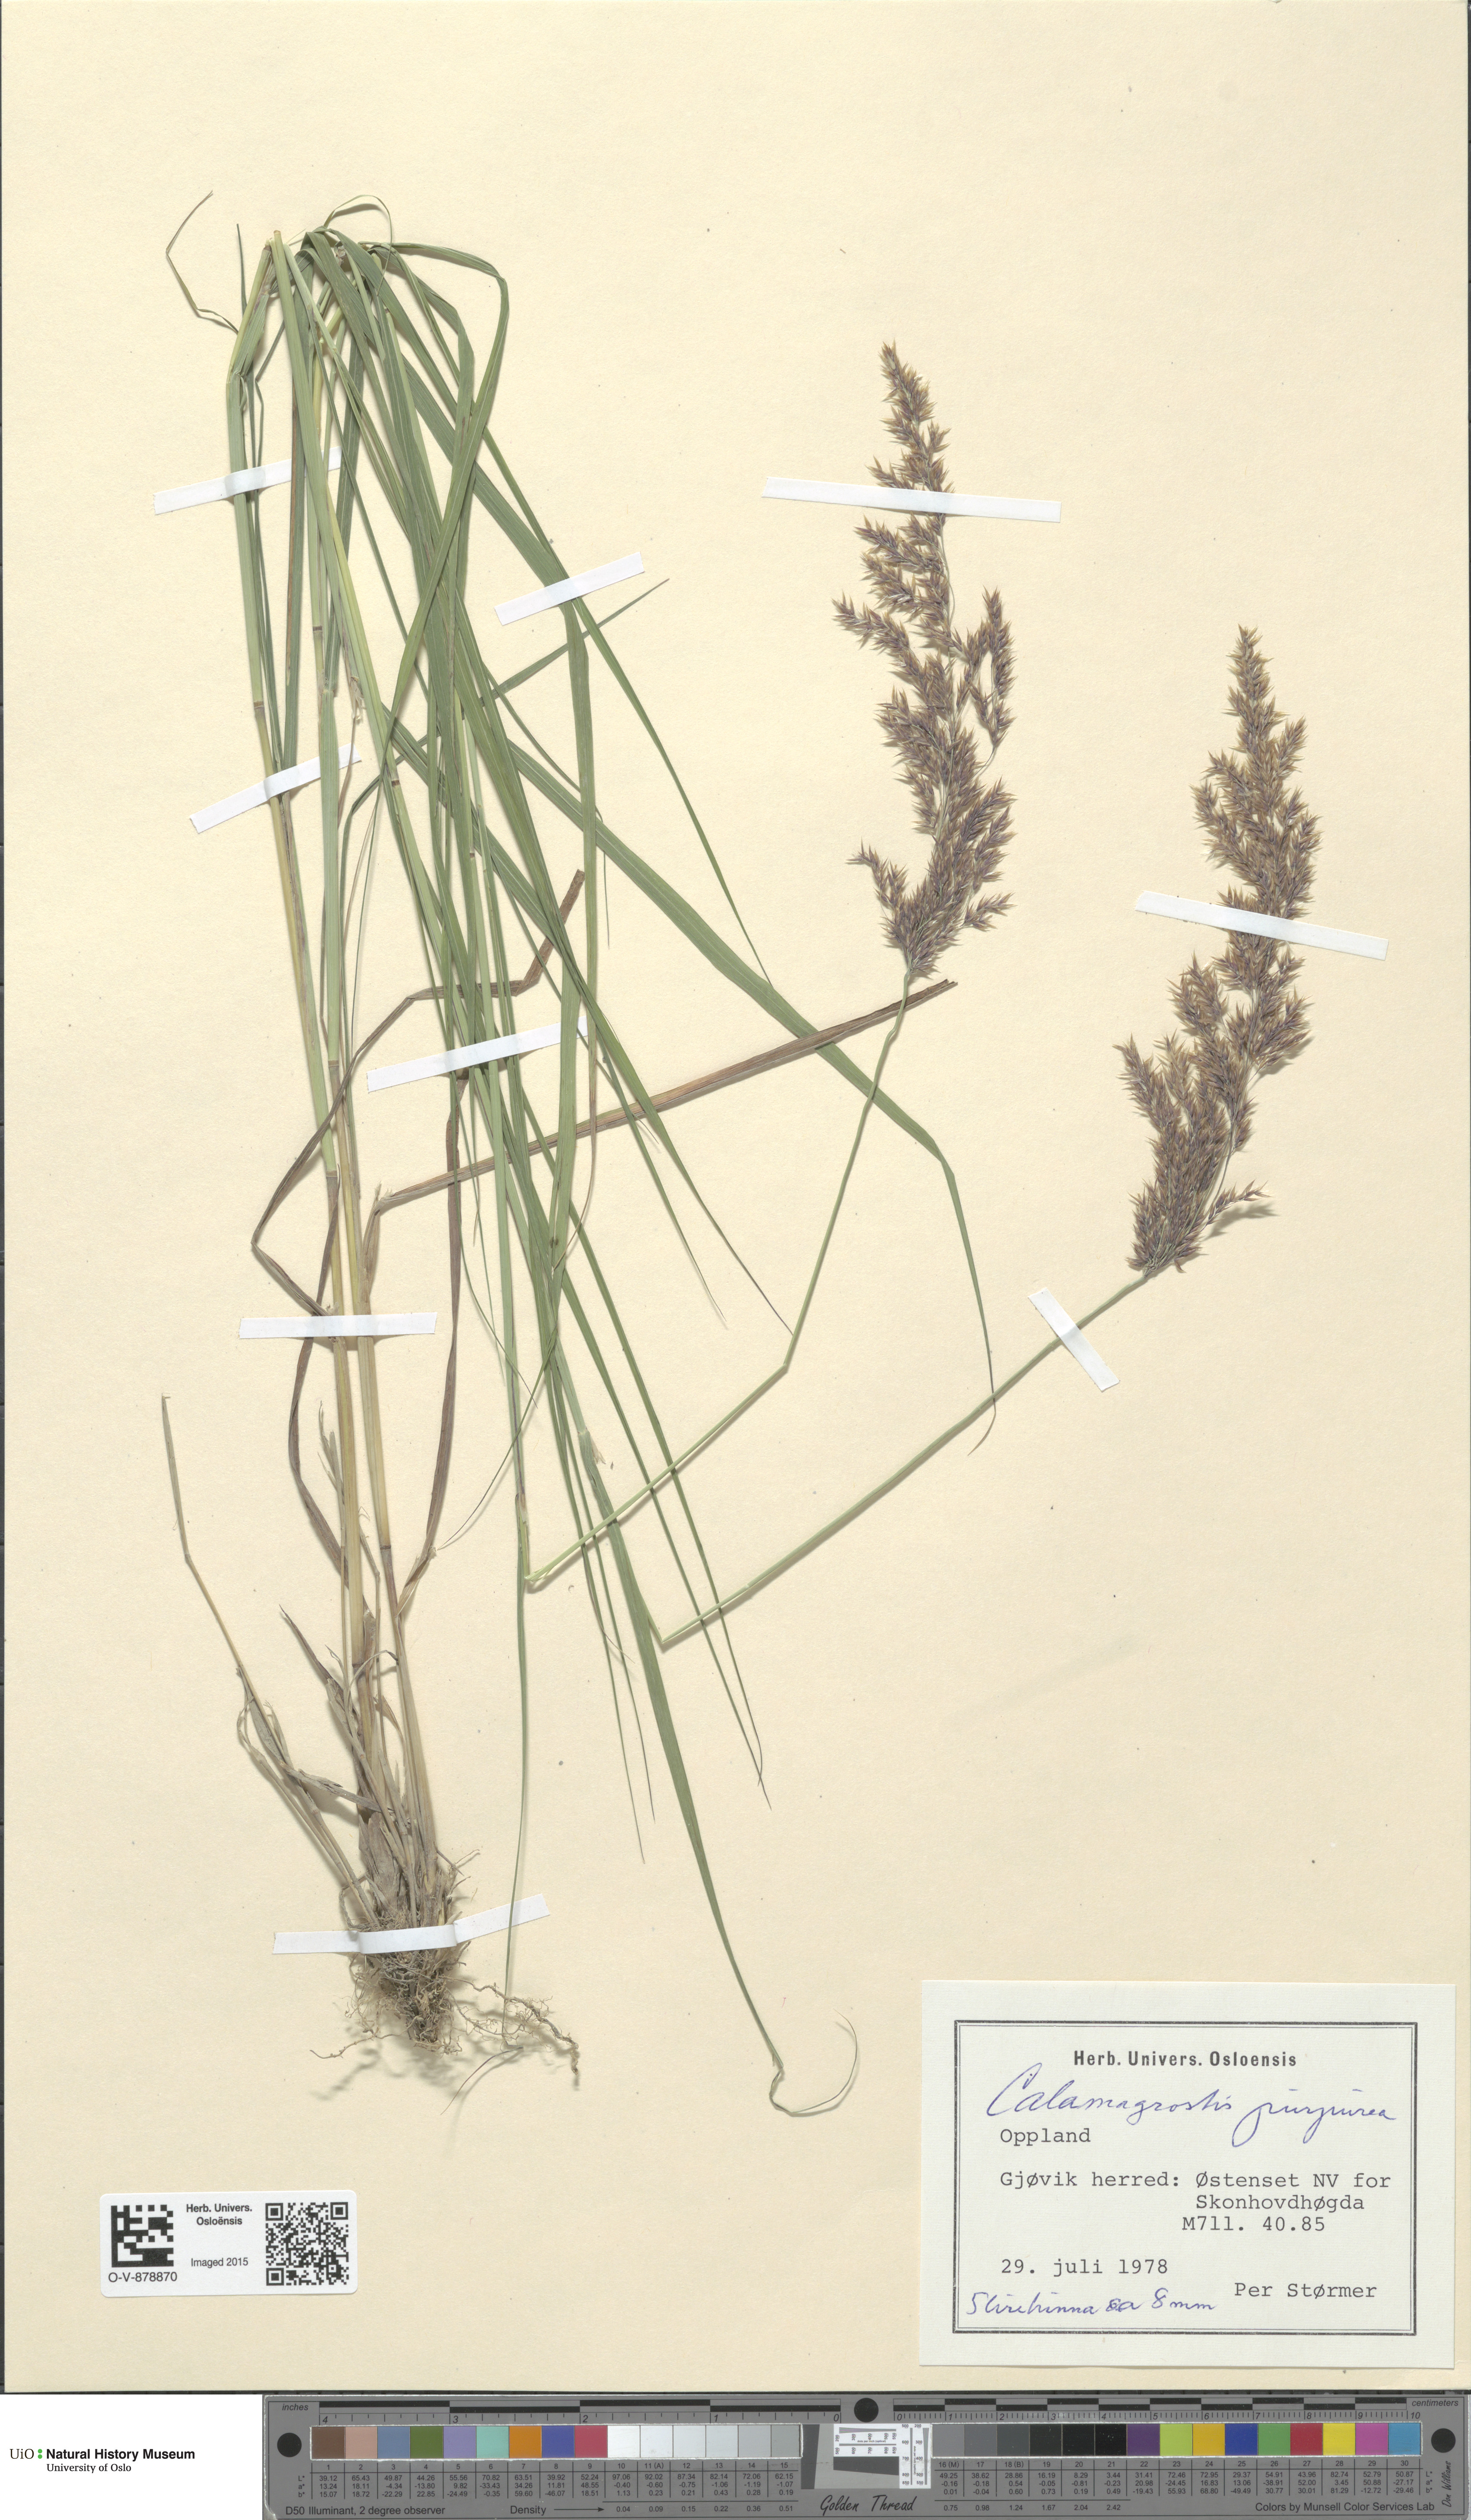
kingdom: Plantae
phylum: Tracheophyta
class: Liliopsida
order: Poales
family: Poaceae
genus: Calamagrostis
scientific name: Calamagrostis purpurea
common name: Scandinavian small-reed
